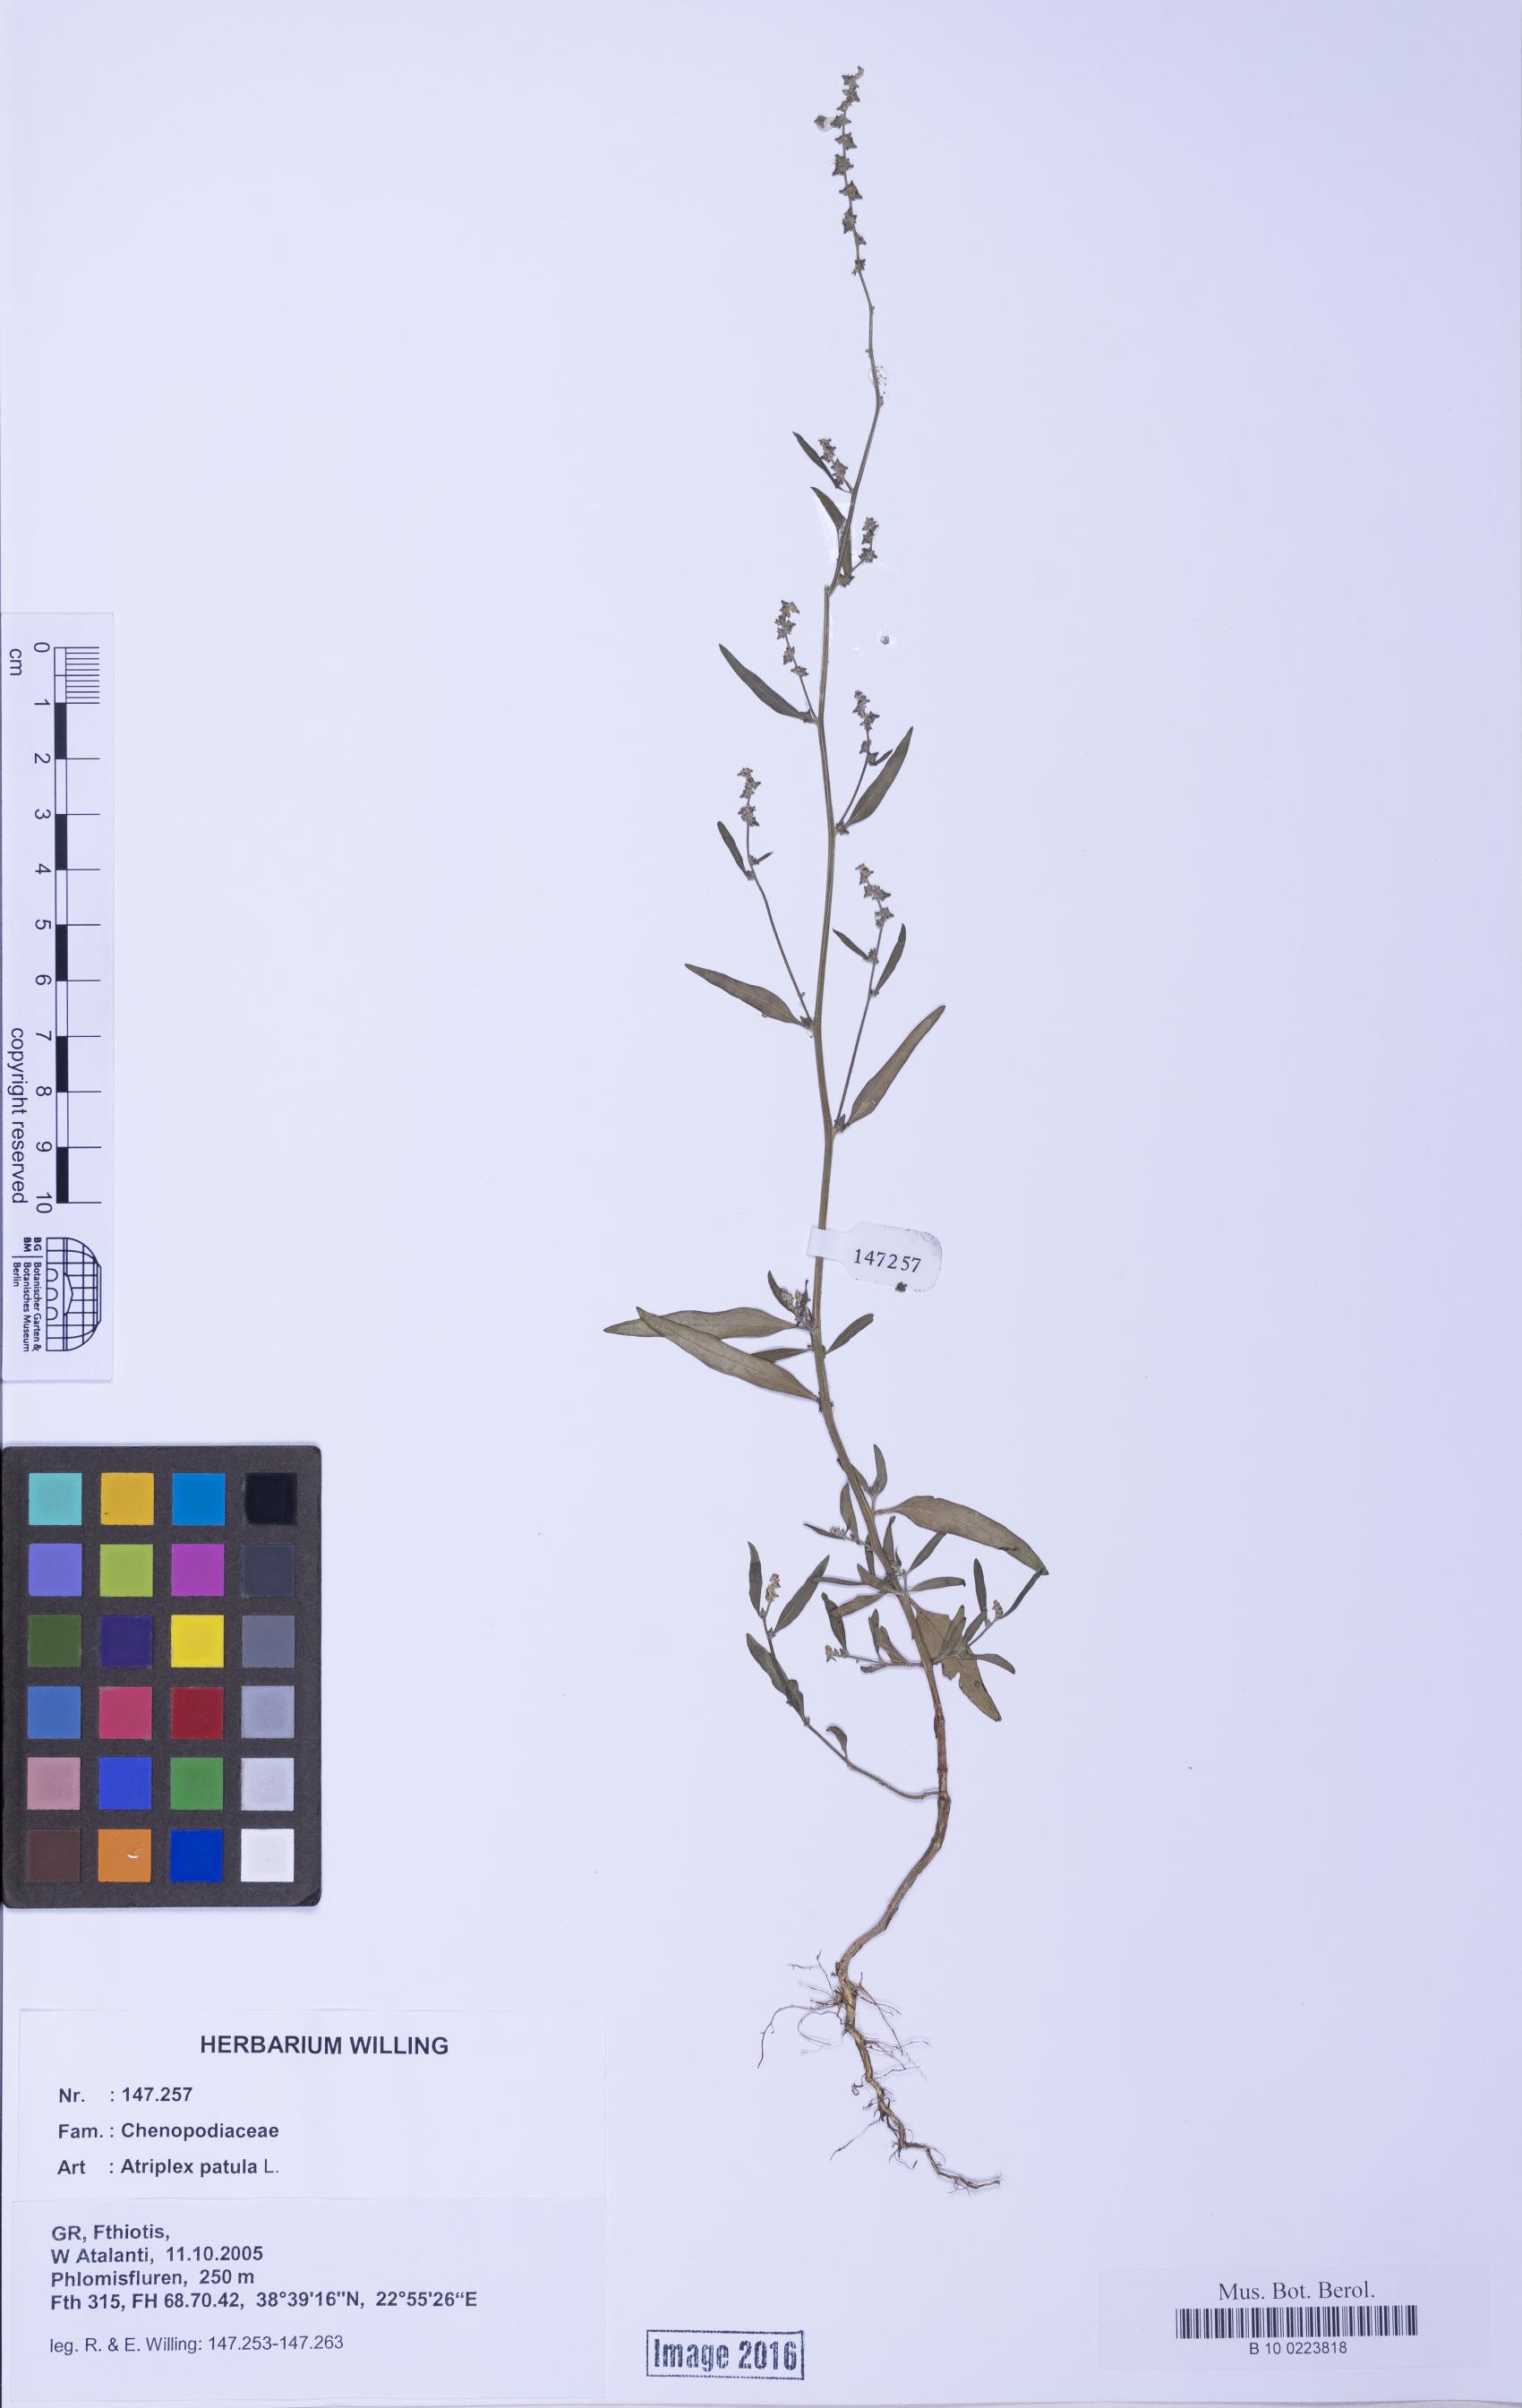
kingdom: Plantae
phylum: Tracheophyta
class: Magnoliopsida
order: Caryophyllales
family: Amaranthaceae
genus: Atriplex
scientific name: Atriplex patula
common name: Common orache
